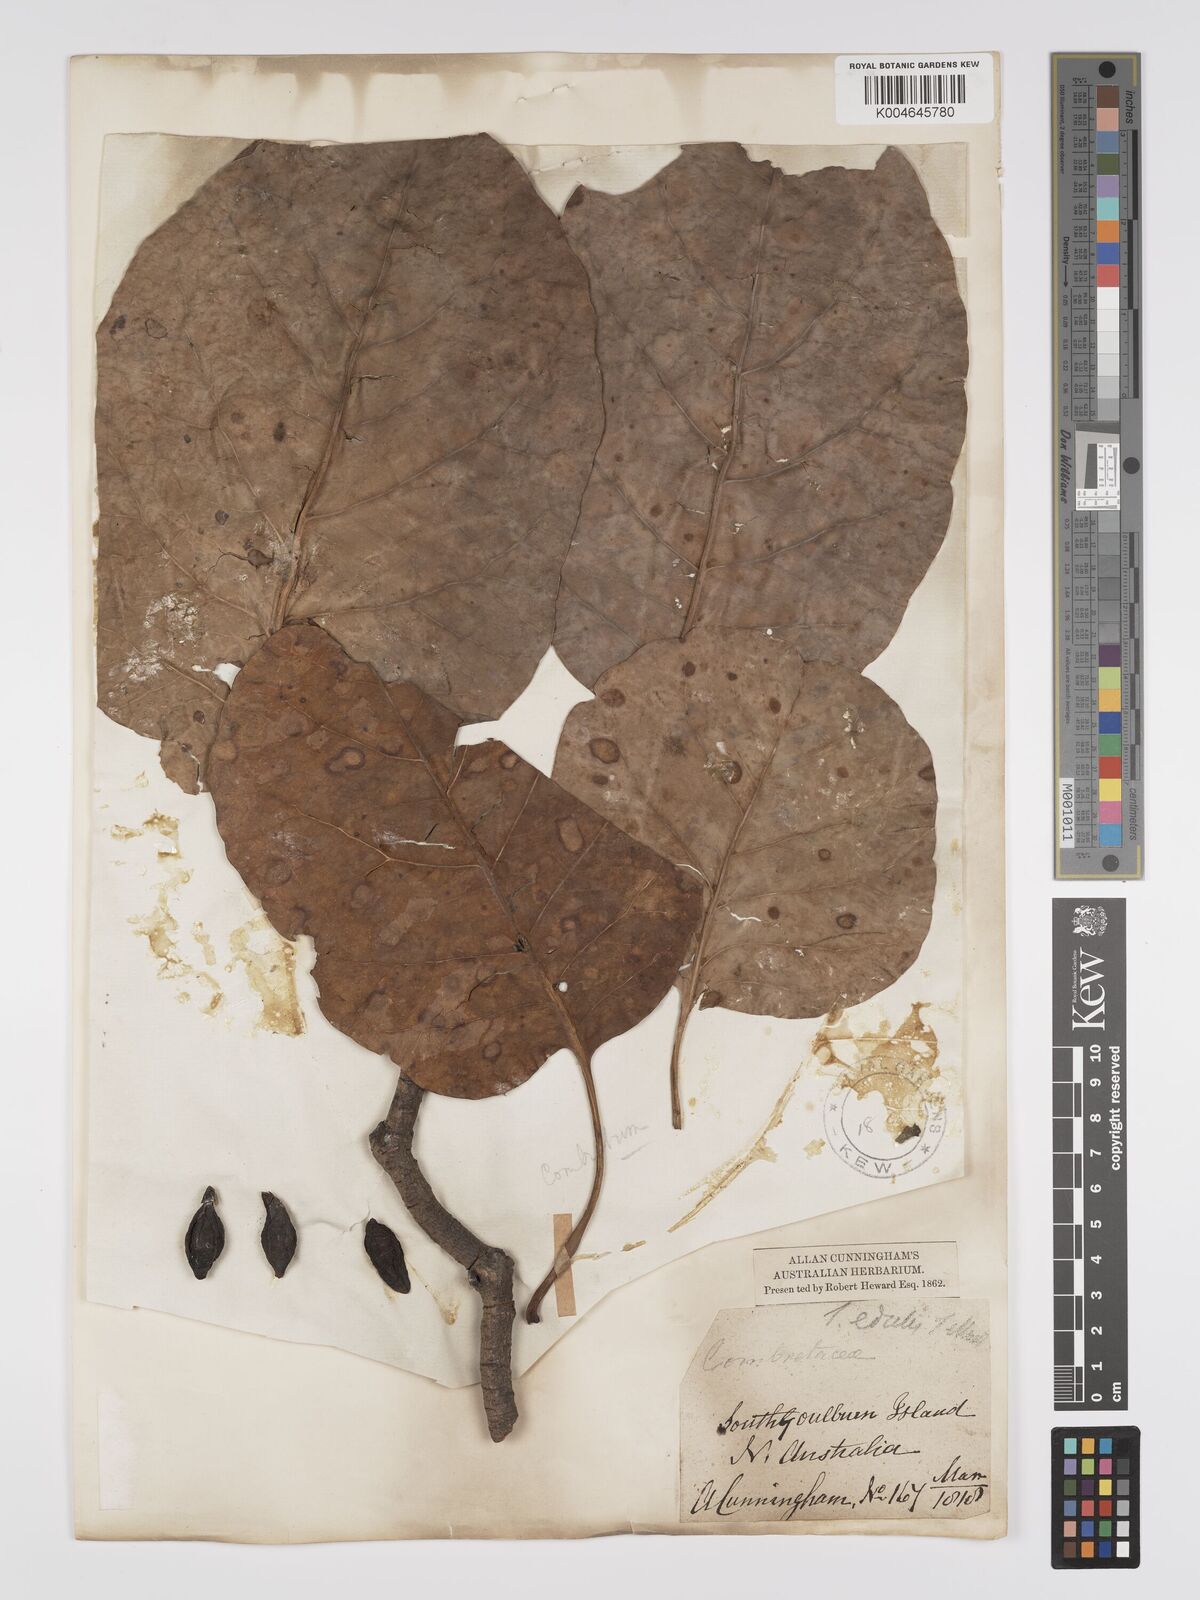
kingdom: Plantae
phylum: Tracheophyta
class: Magnoliopsida
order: Myrtales
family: Combretaceae
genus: Terminalia
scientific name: Terminalia
